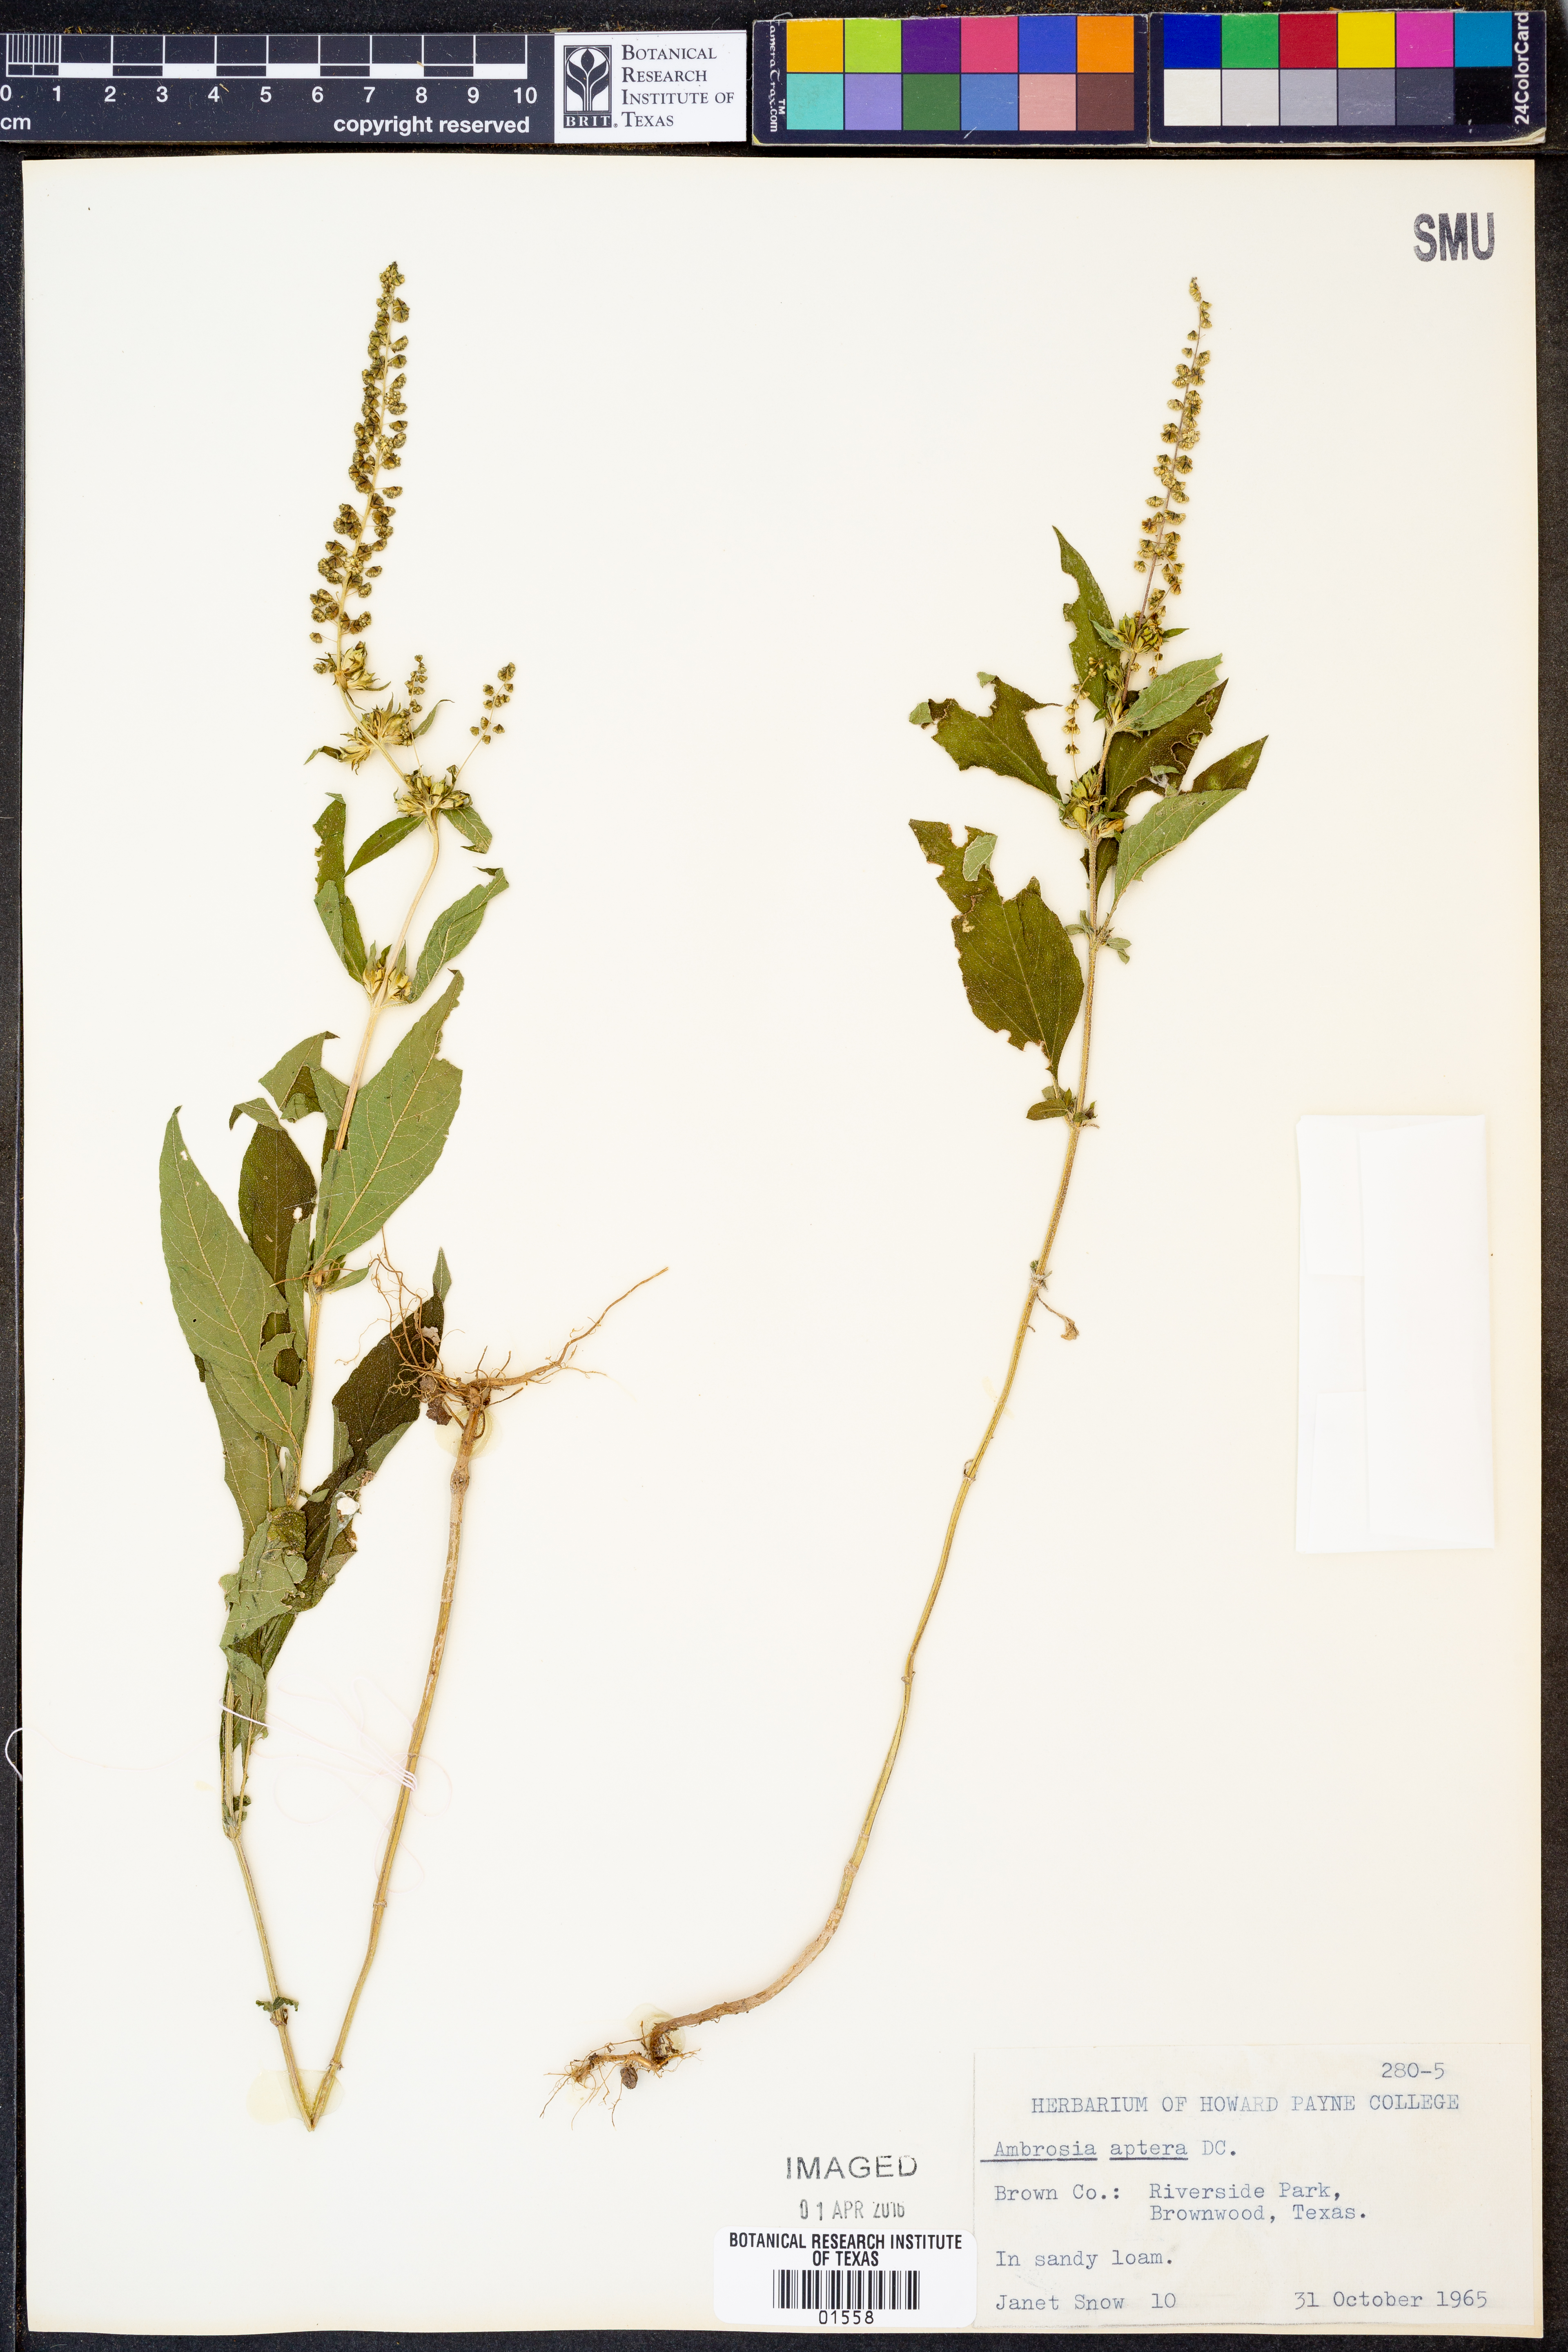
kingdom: Plantae
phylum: Tracheophyta
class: Magnoliopsida
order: Asterales
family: Asteraceae
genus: Ambrosia
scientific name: Ambrosia trifida
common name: Giant ragweed
